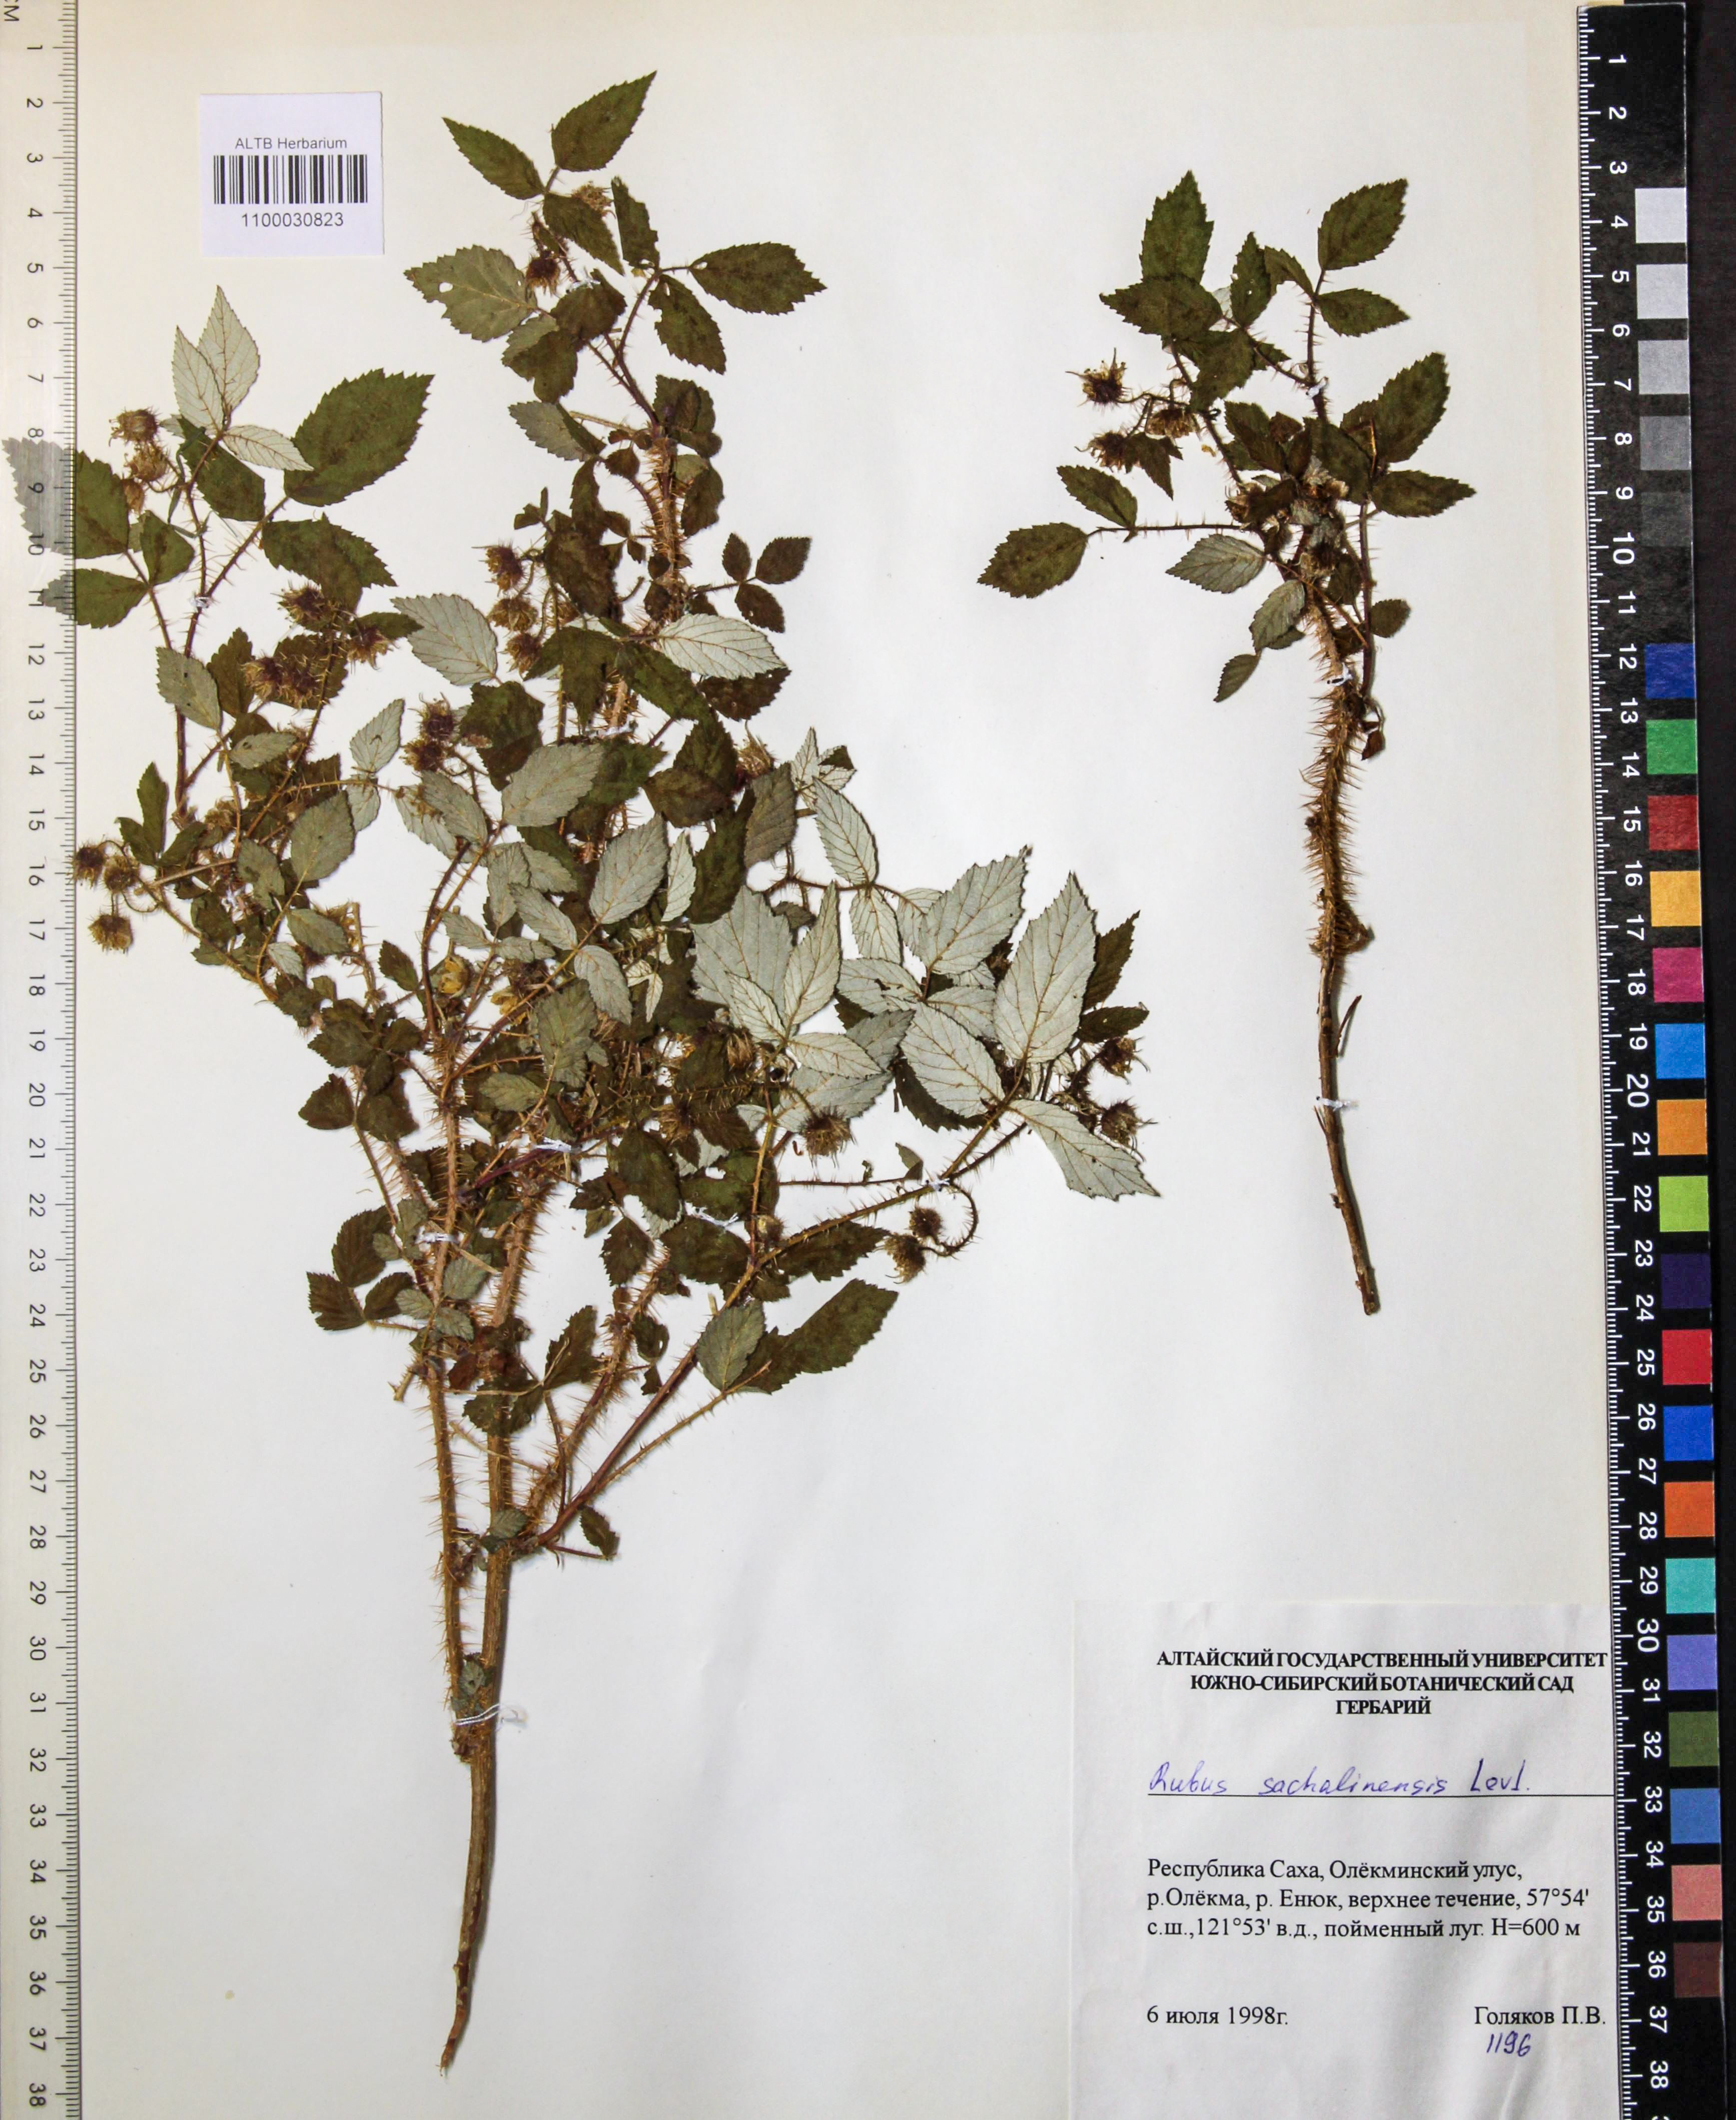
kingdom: Plantae
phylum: Tracheophyta
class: Magnoliopsida
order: Rosales
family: Rosaceae
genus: Rubus
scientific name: Rubus sachalinensis
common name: Red raspberry
